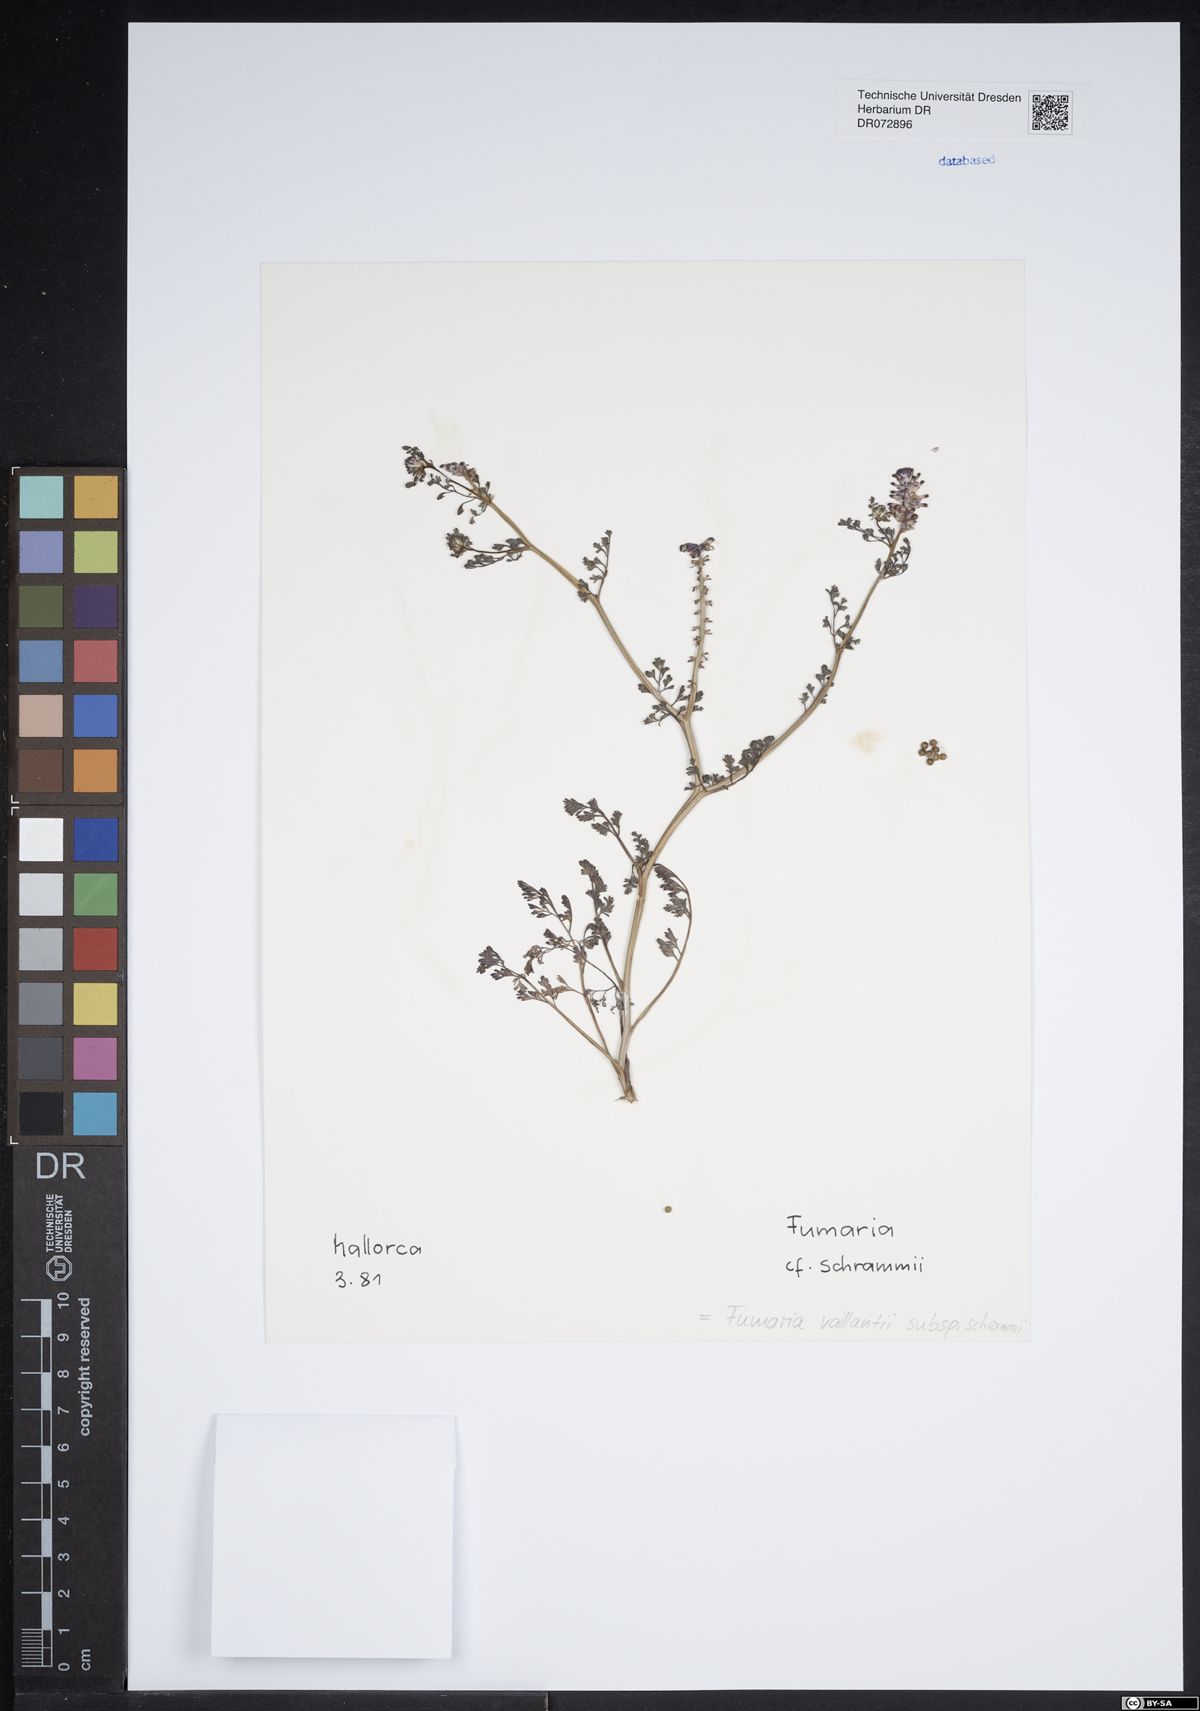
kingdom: Plantae
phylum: Tracheophyta
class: Magnoliopsida
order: Ranunculales
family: Papaveraceae
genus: Fumaria
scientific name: Fumaria vaillantii
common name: Few-flowered fumitory
